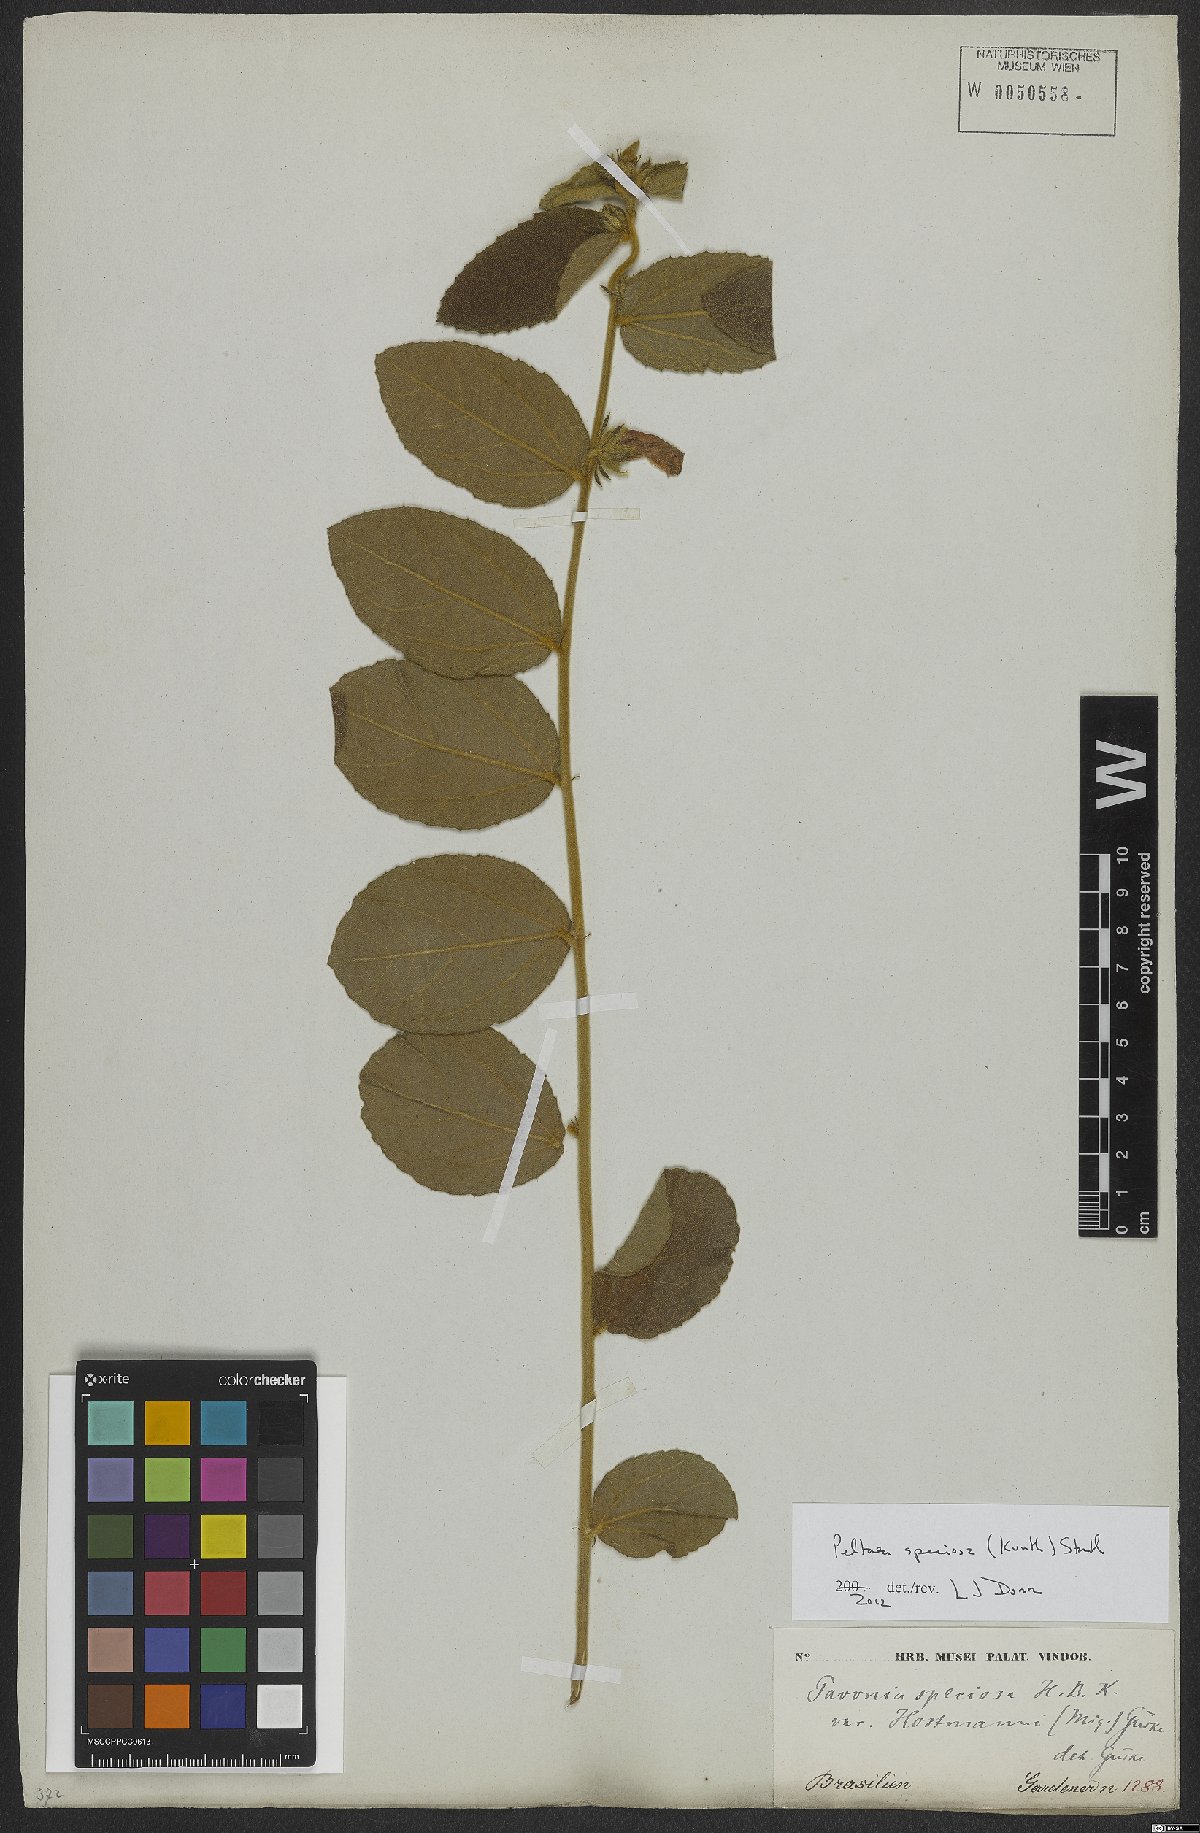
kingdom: Plantae
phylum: Tracheophyta
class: Magnoliopsida
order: Malvales
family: Malvaceae
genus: Peltaea
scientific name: Peltaea speciosa
